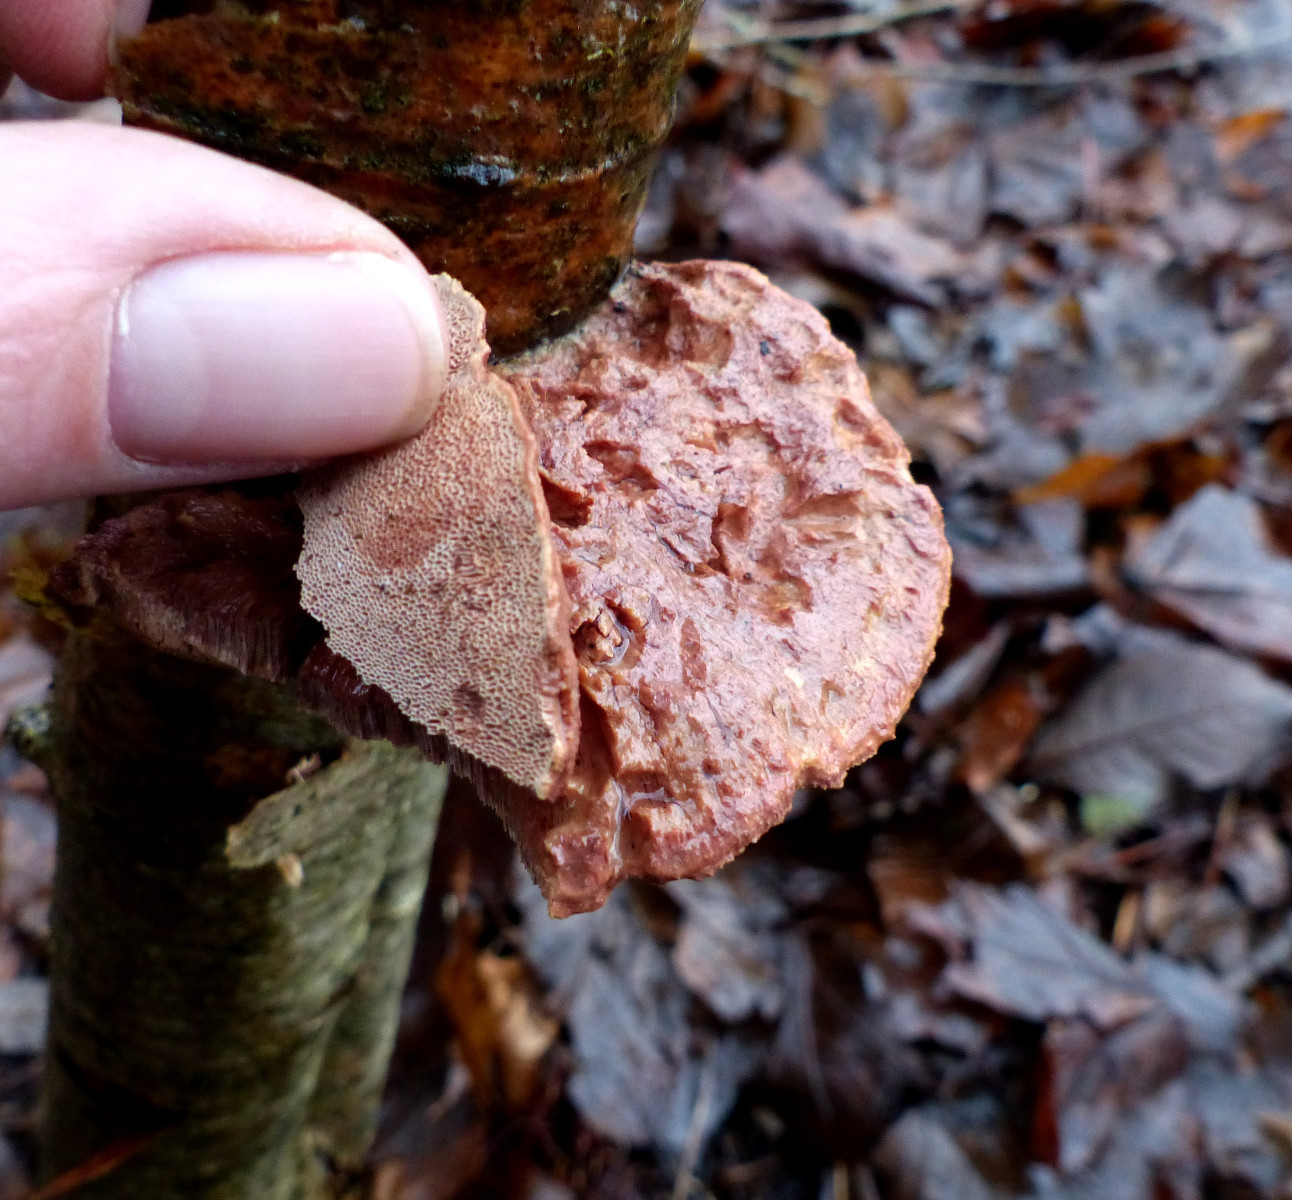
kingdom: Fungi
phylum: Basidiomycota
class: Agaricomycetes
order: Polyporales
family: Phanerochaetaceae
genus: Hapalopilus
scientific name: Hapalopilus rutilans
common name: rødlig okkerporesvamp
